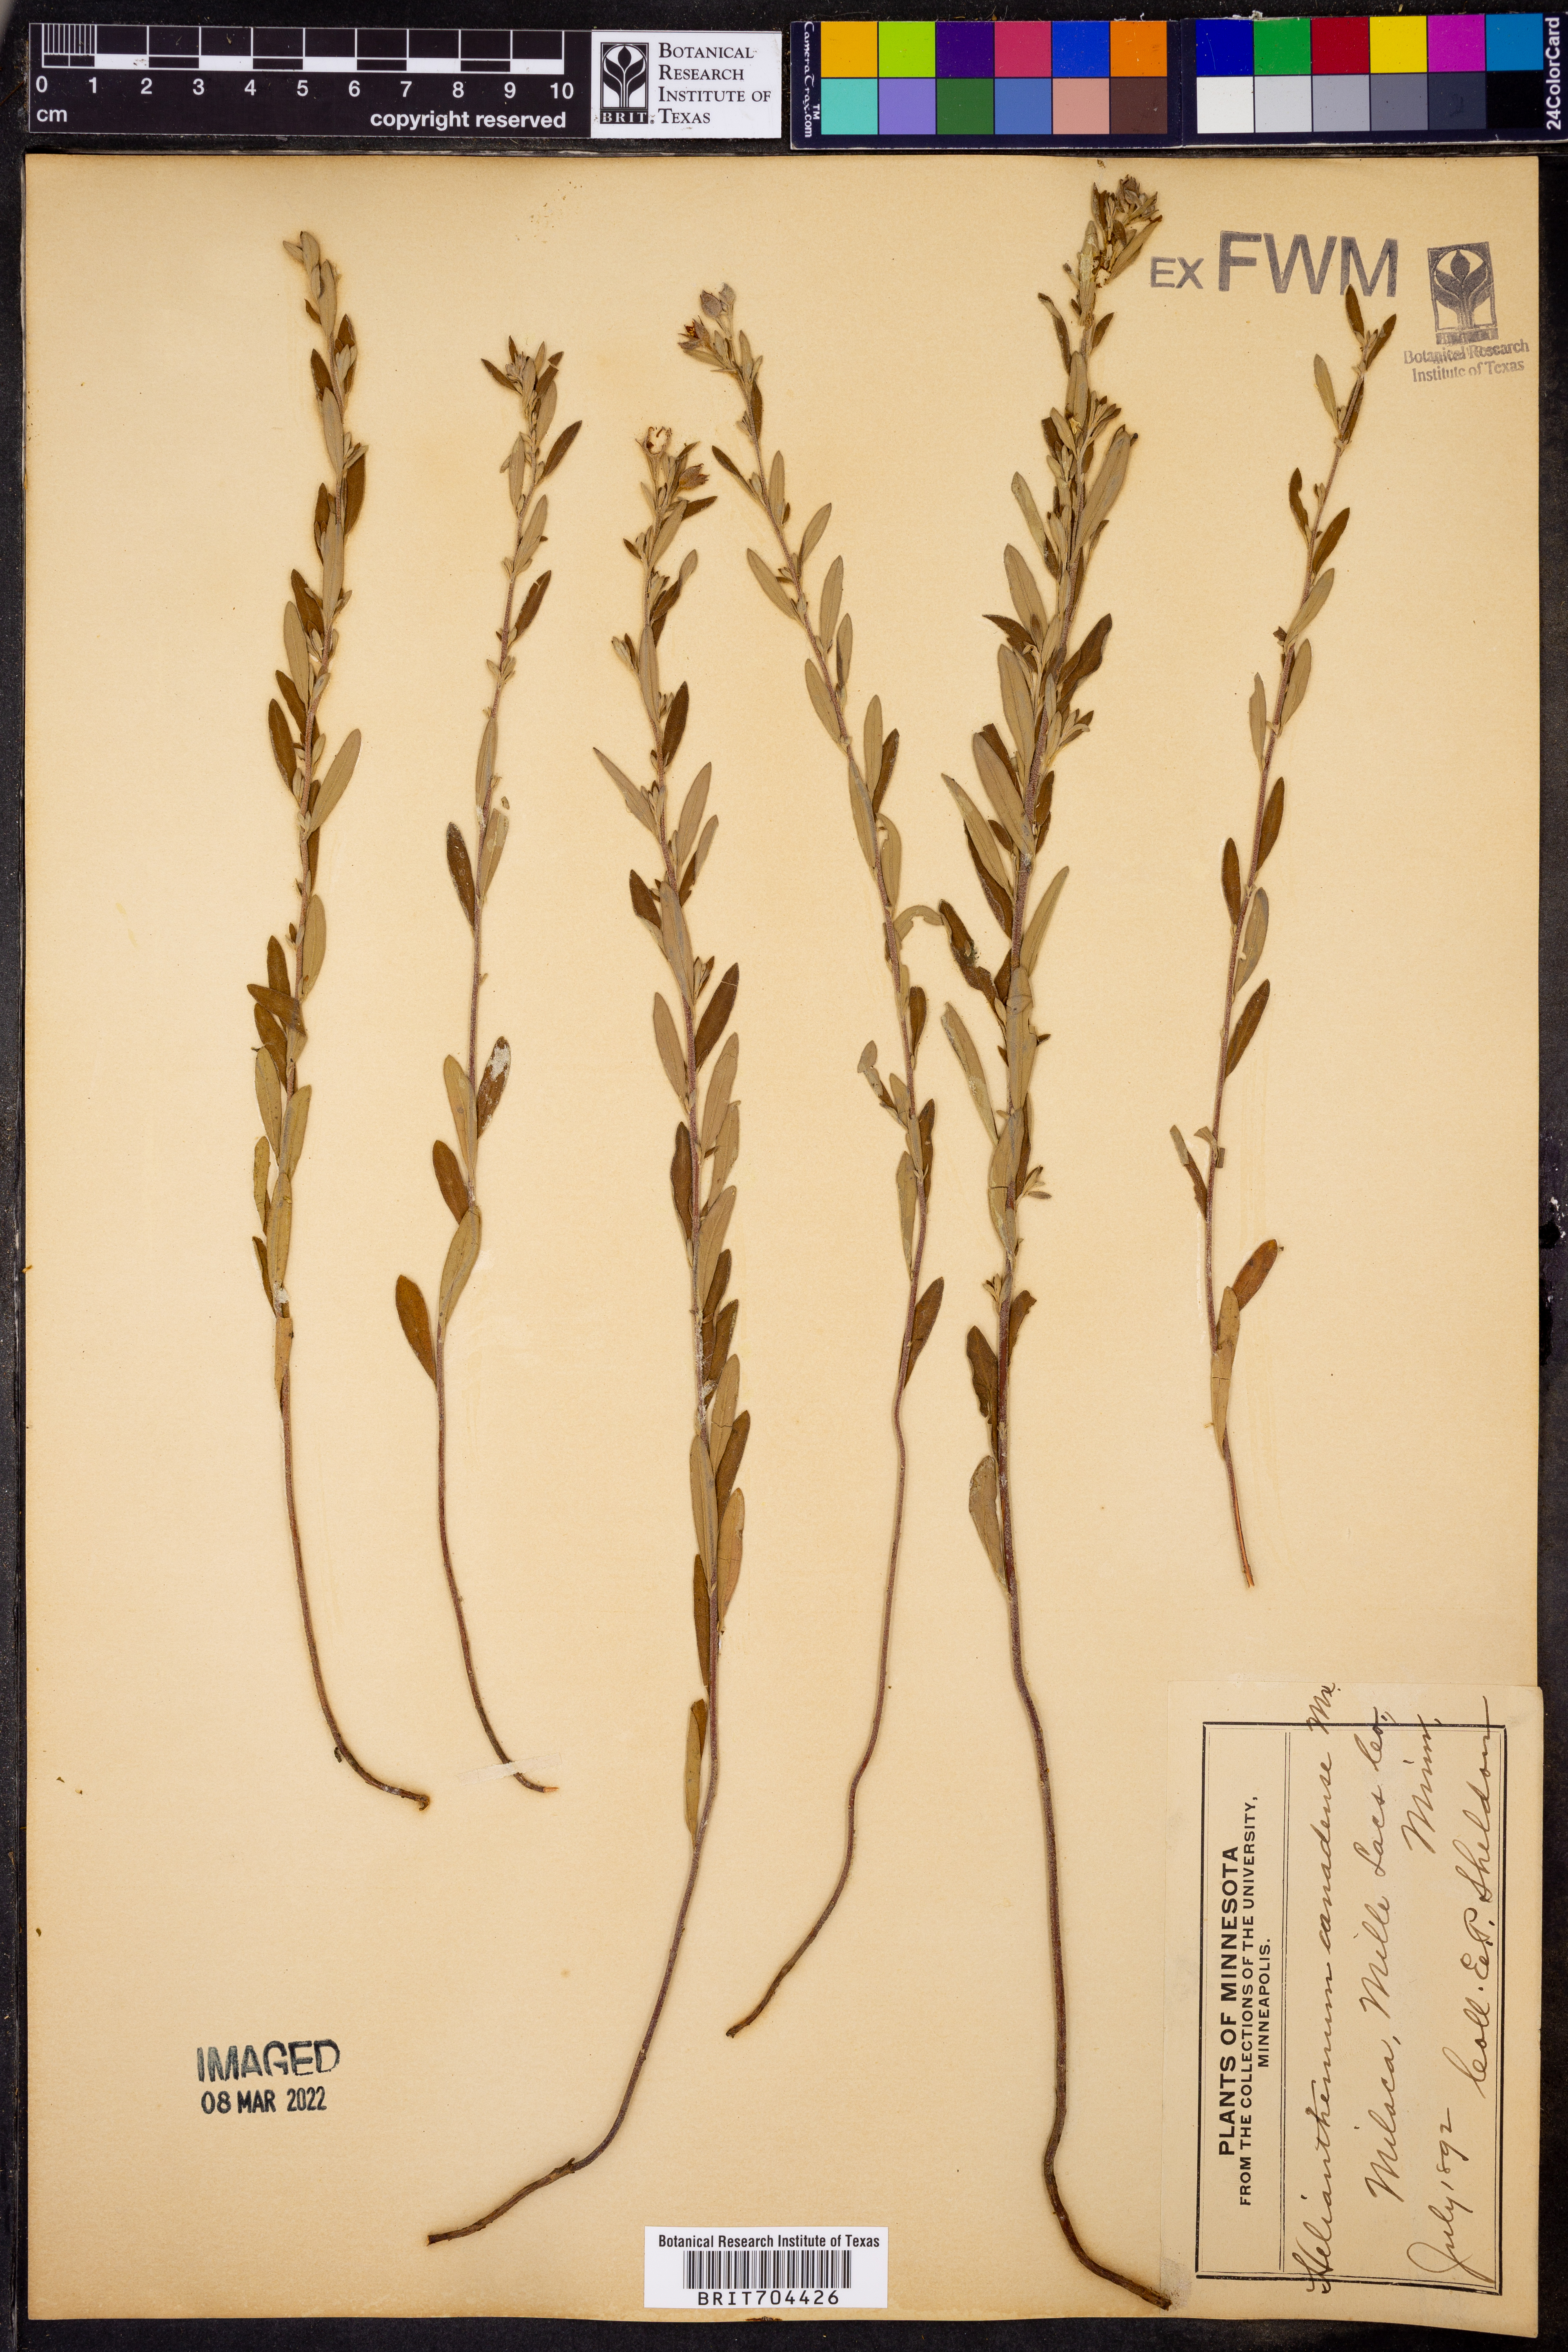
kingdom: Plantae
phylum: Tracheophyta
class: Magnoliopsida
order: Malvales
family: Cistaceae
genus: Crocanthemum
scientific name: Crocanthemum canadense
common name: Canada frostweed
